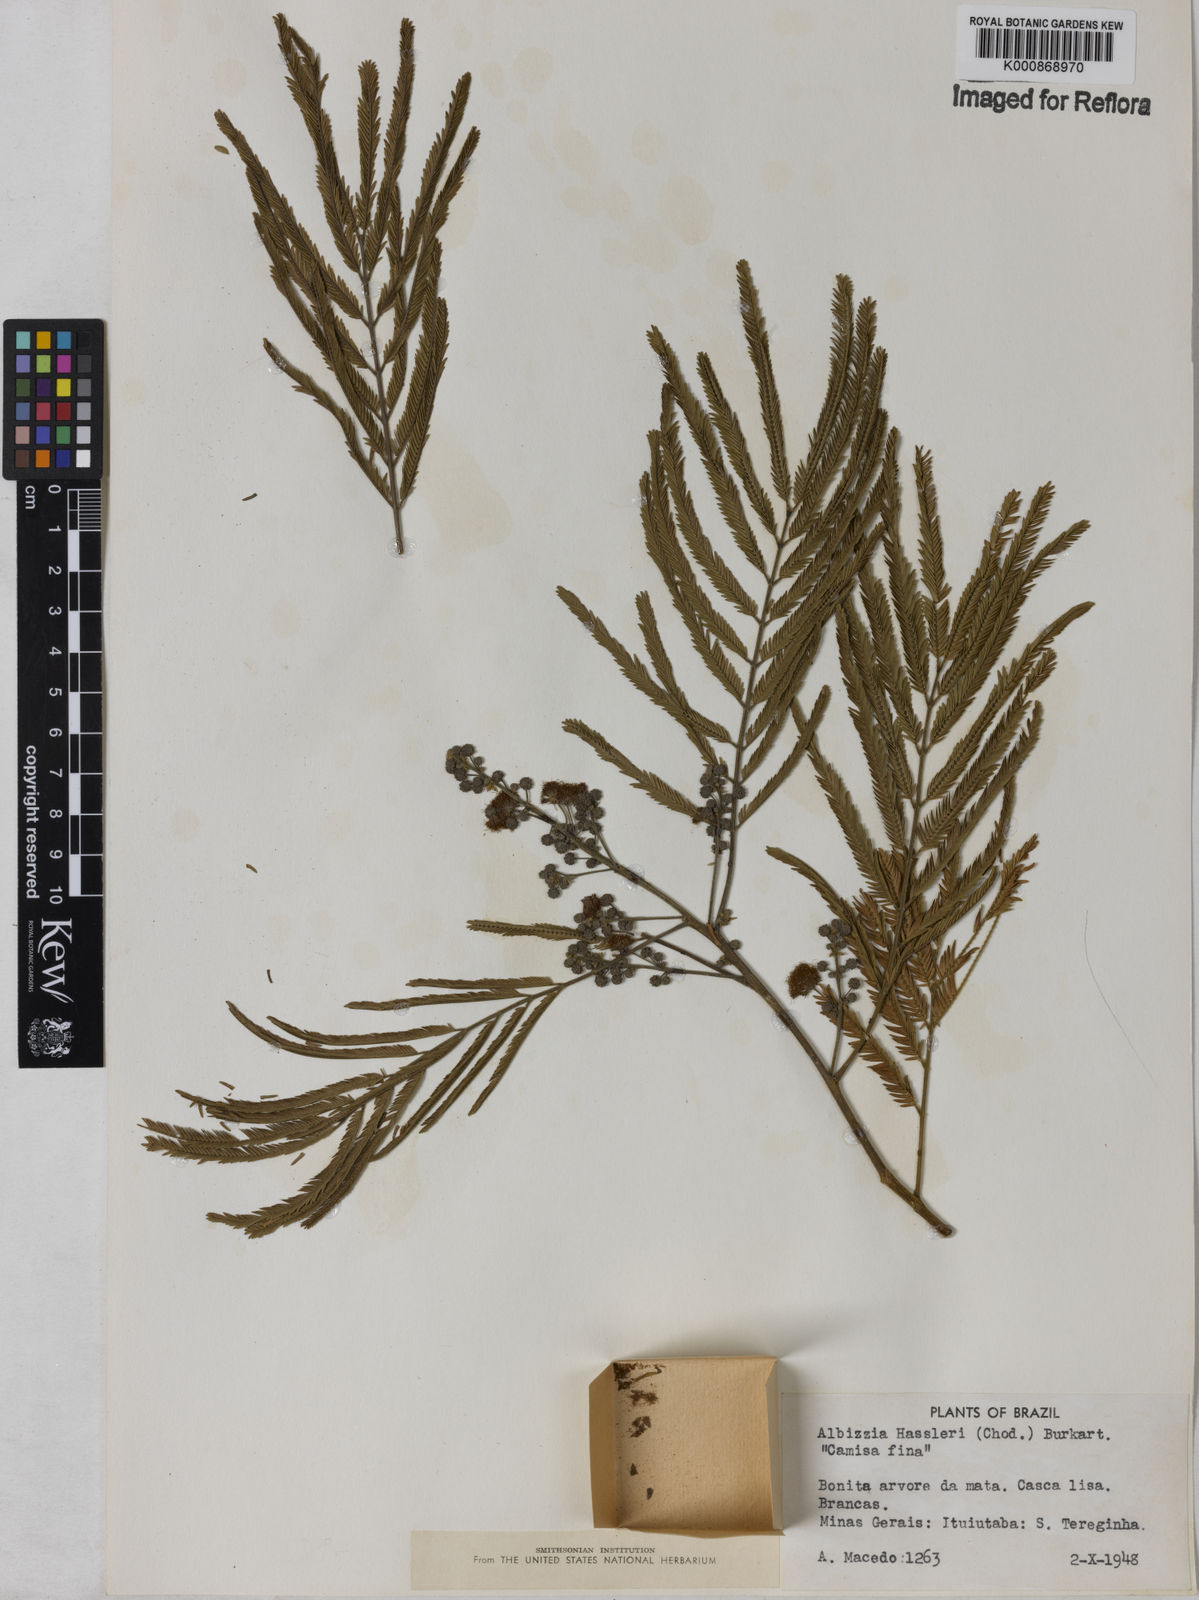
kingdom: Plantae
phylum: Tracheophyta
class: Magnoliopsida
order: Fabales
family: Fabaceae
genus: Albizia
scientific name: Albizia niopoides
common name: Silk tree
